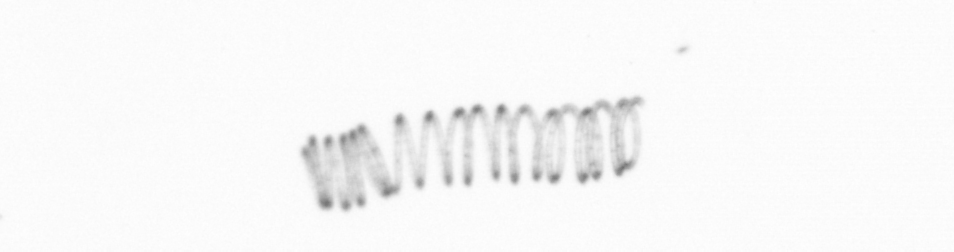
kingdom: Chromista
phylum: Ochrophyta
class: Bacillariophyceae
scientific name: Bacillariophyceae
